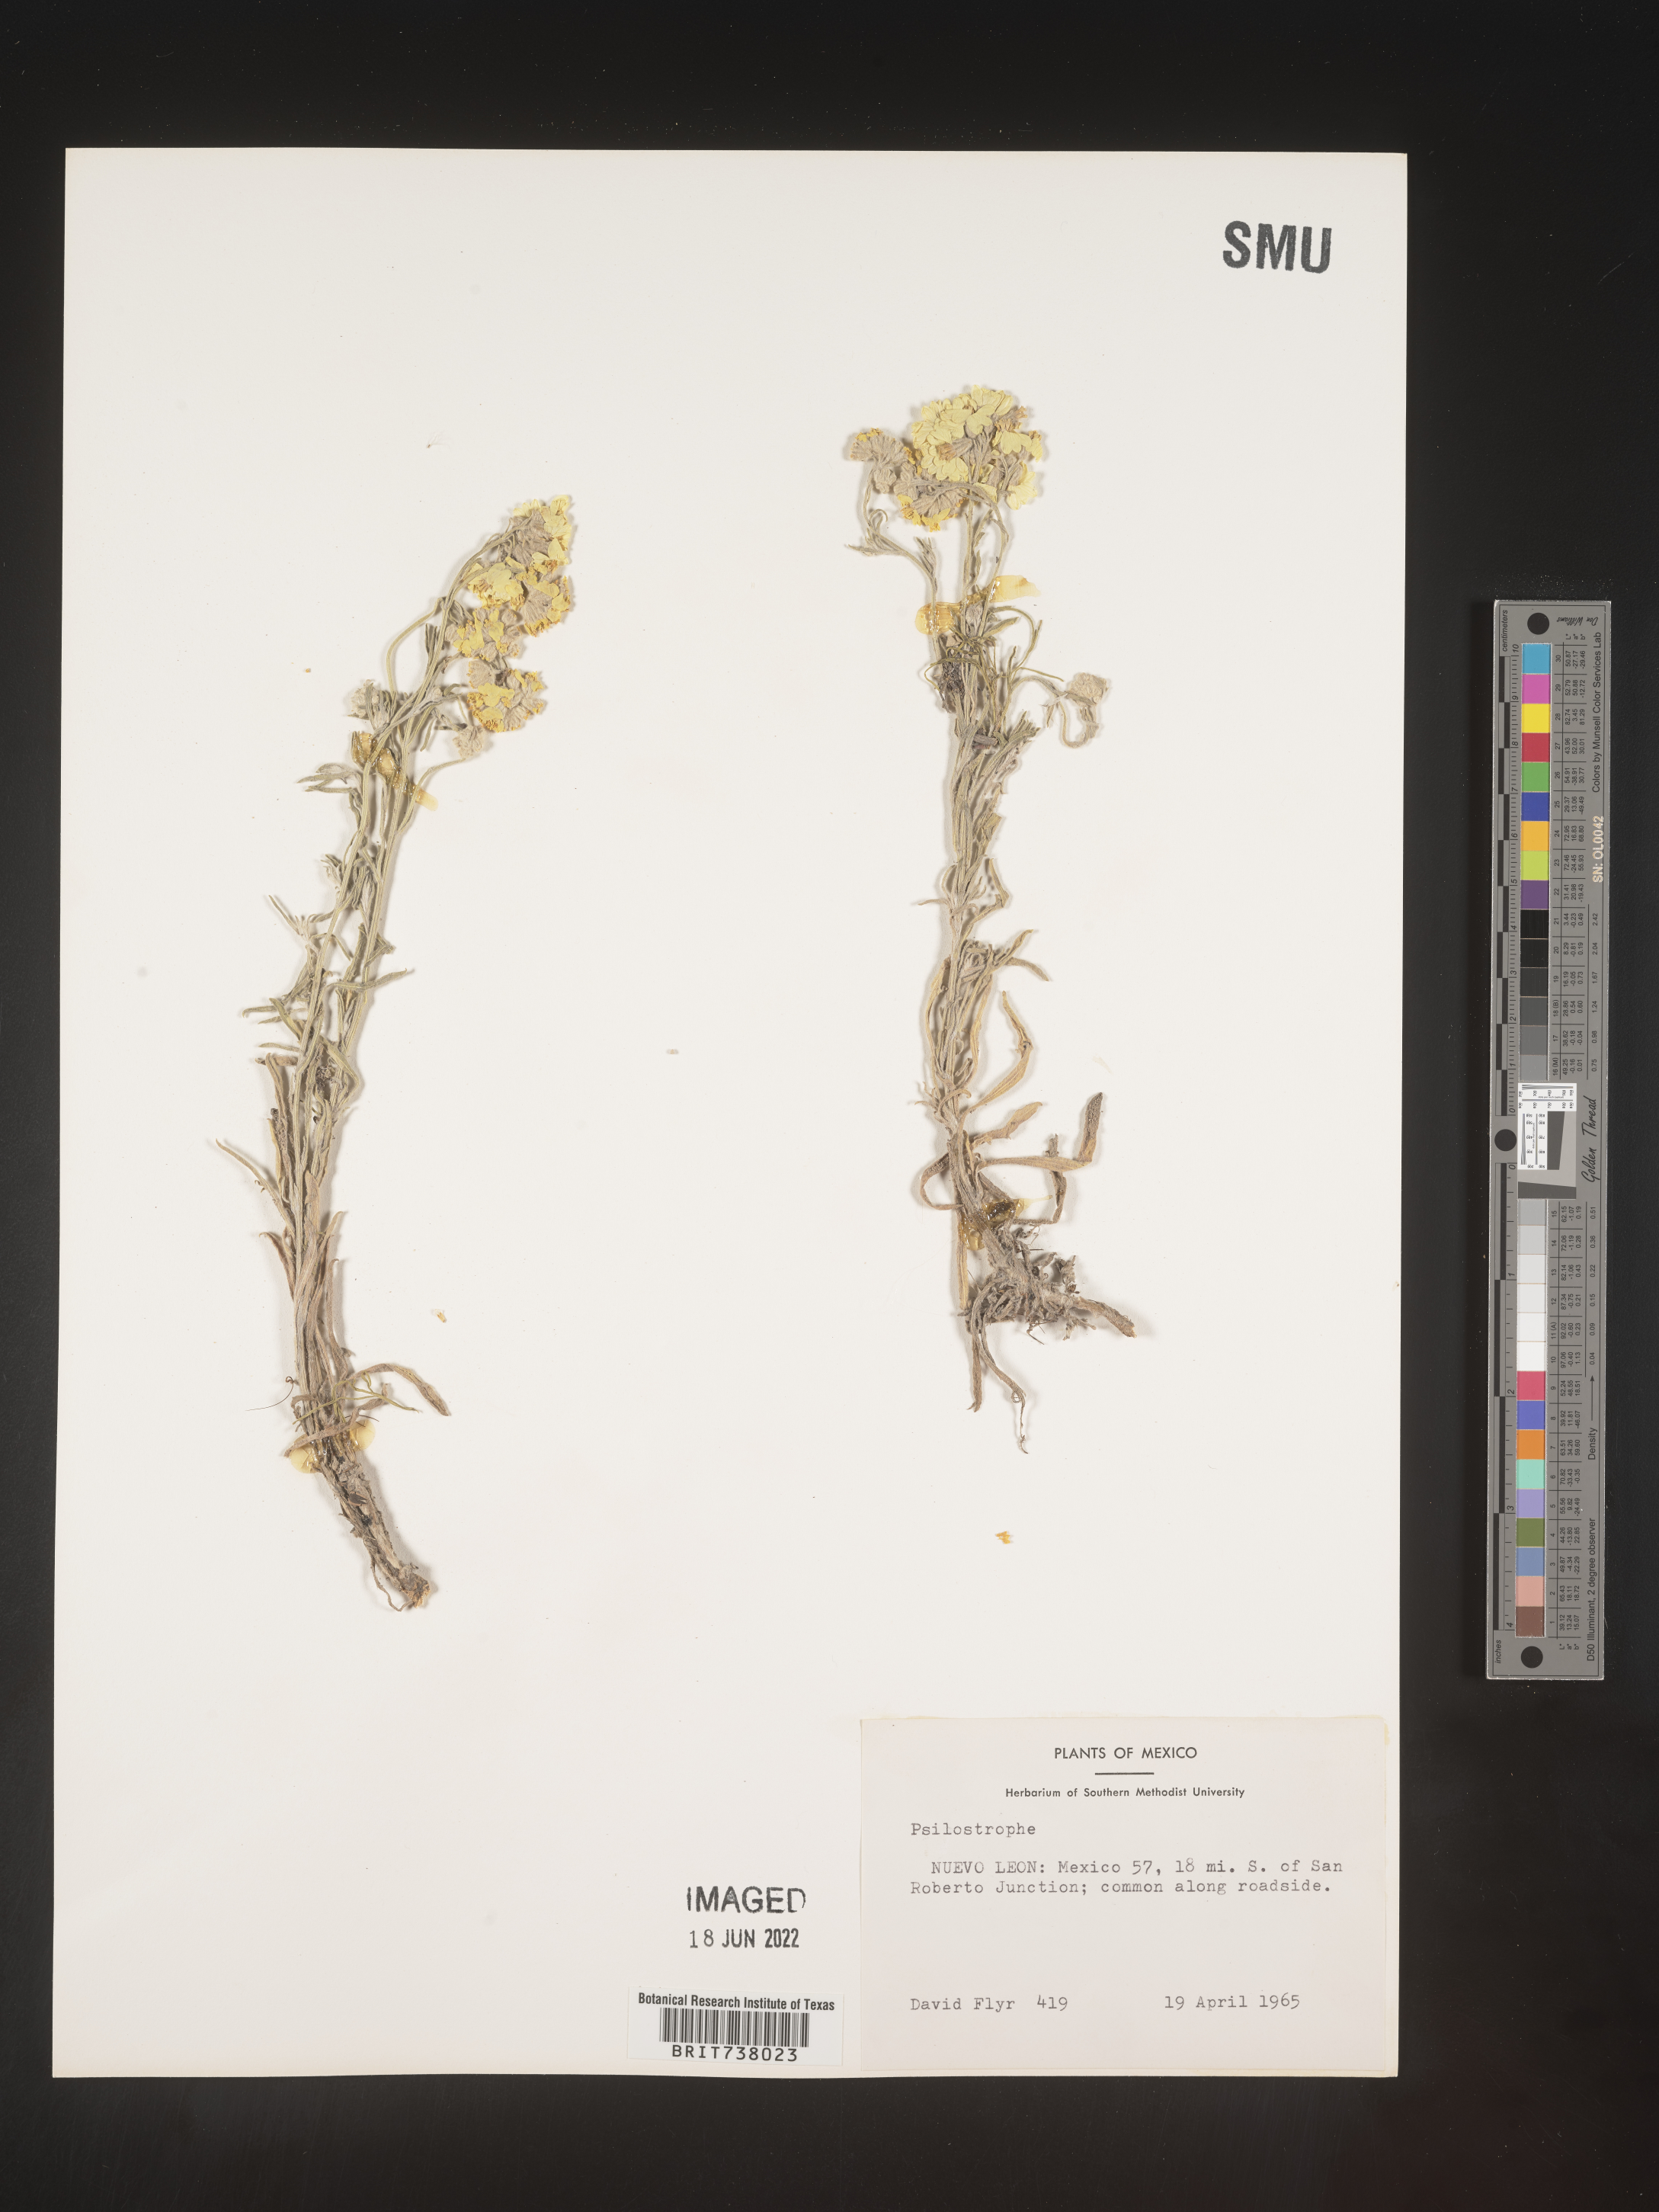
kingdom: Plantae
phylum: Tracheophyta
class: Magnoliopsida
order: Asterales
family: Asteraceae
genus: Psilostrophe
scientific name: Psilostrophe
